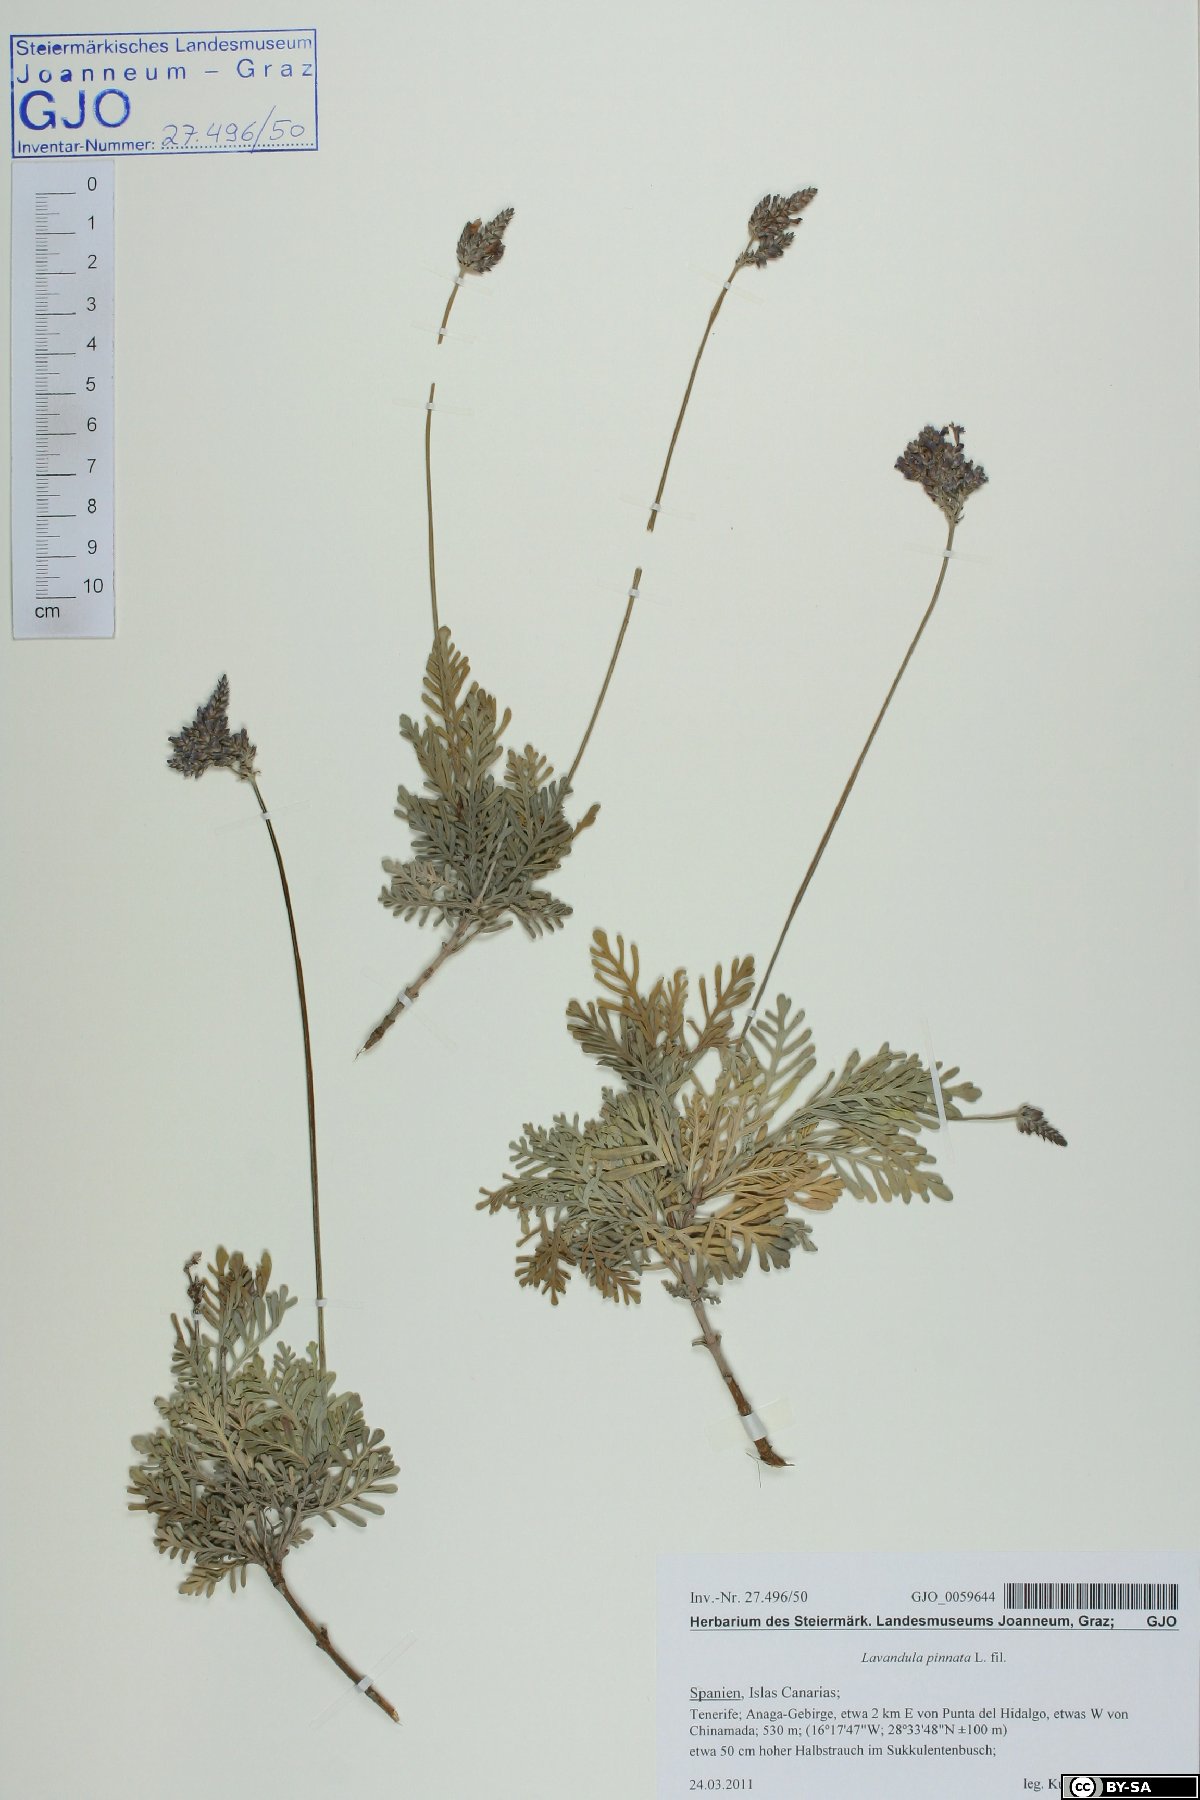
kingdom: Plantae
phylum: Tracheophyta
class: Magnoliopsida
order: Lamiales
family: Lamiaceae
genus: Lavandula
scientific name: Lavandula pinnata
